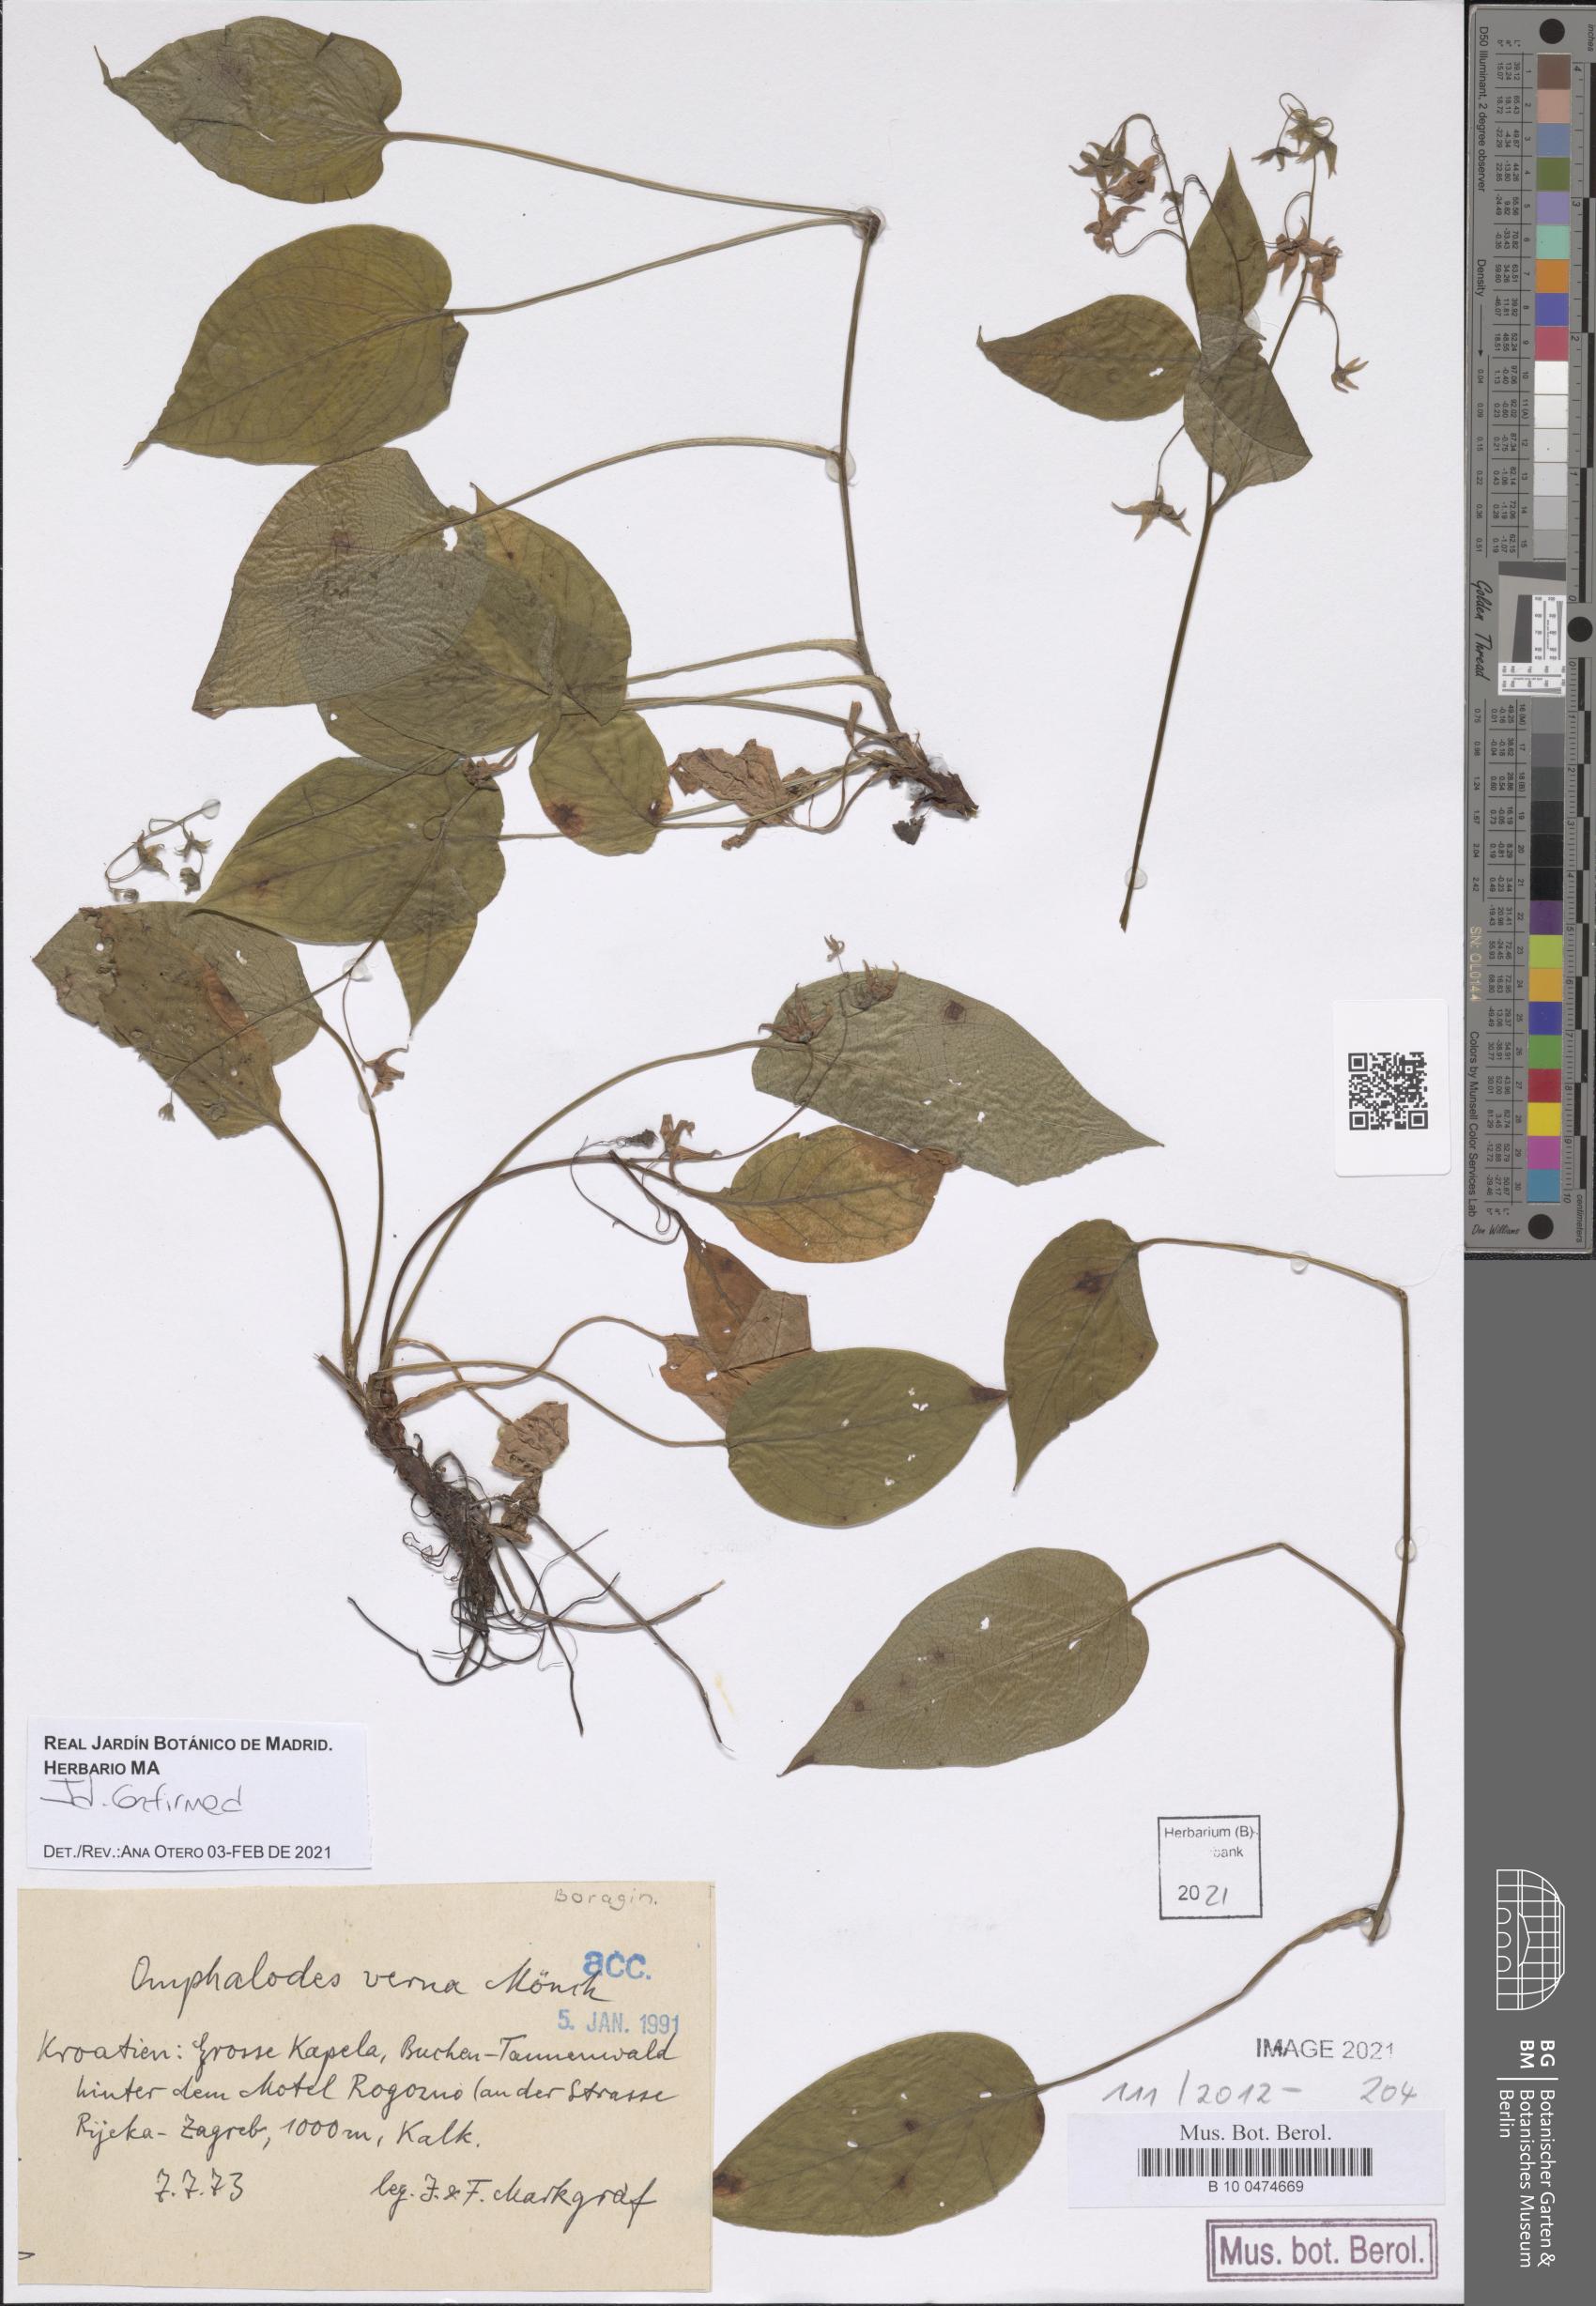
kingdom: Plantae
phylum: Tracheophyta
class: Magnoliopsida
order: Boraginales
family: Boraginaceae
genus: Omphalodes
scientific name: Omphalodes verna
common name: Blue-eyed-mary
